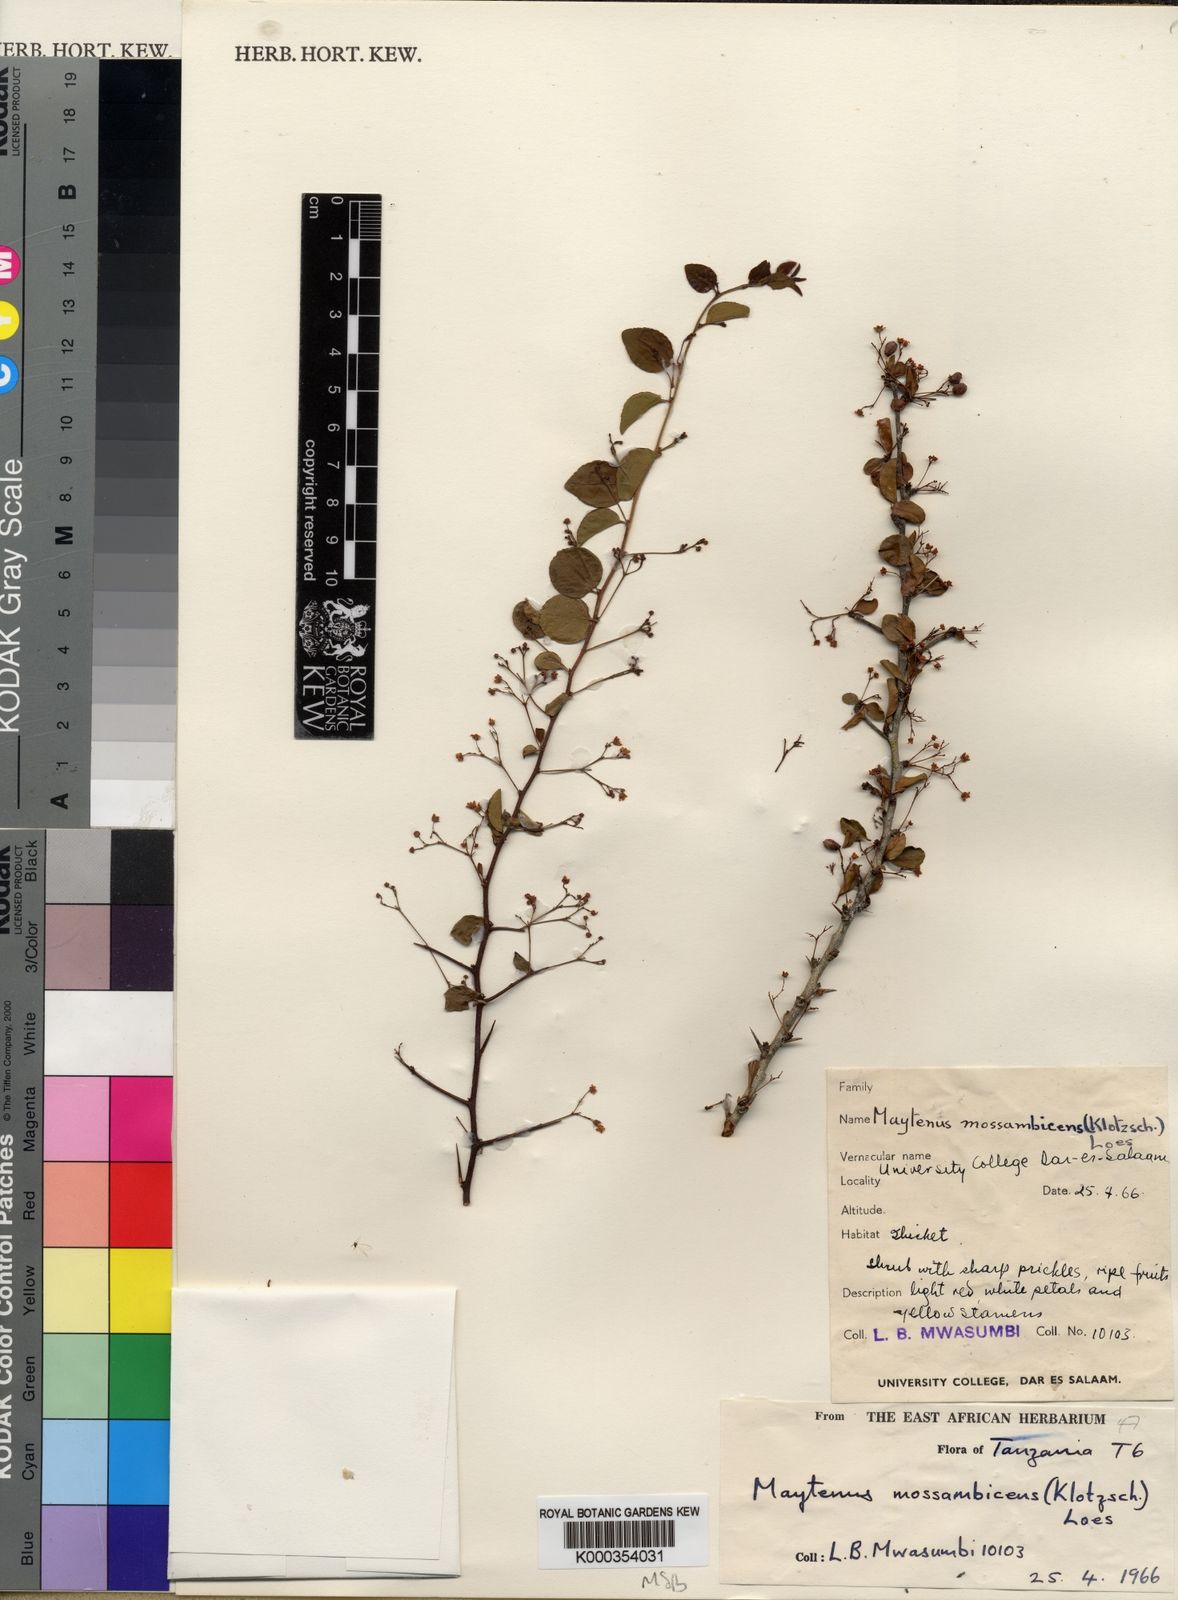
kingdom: Plantae
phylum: Tracheophyta
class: Magnoliopsida
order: Celastrales
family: Celastraceae
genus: Gymnosporia
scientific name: Gymnosporia mossambicensis
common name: Black forest spike-thorn
